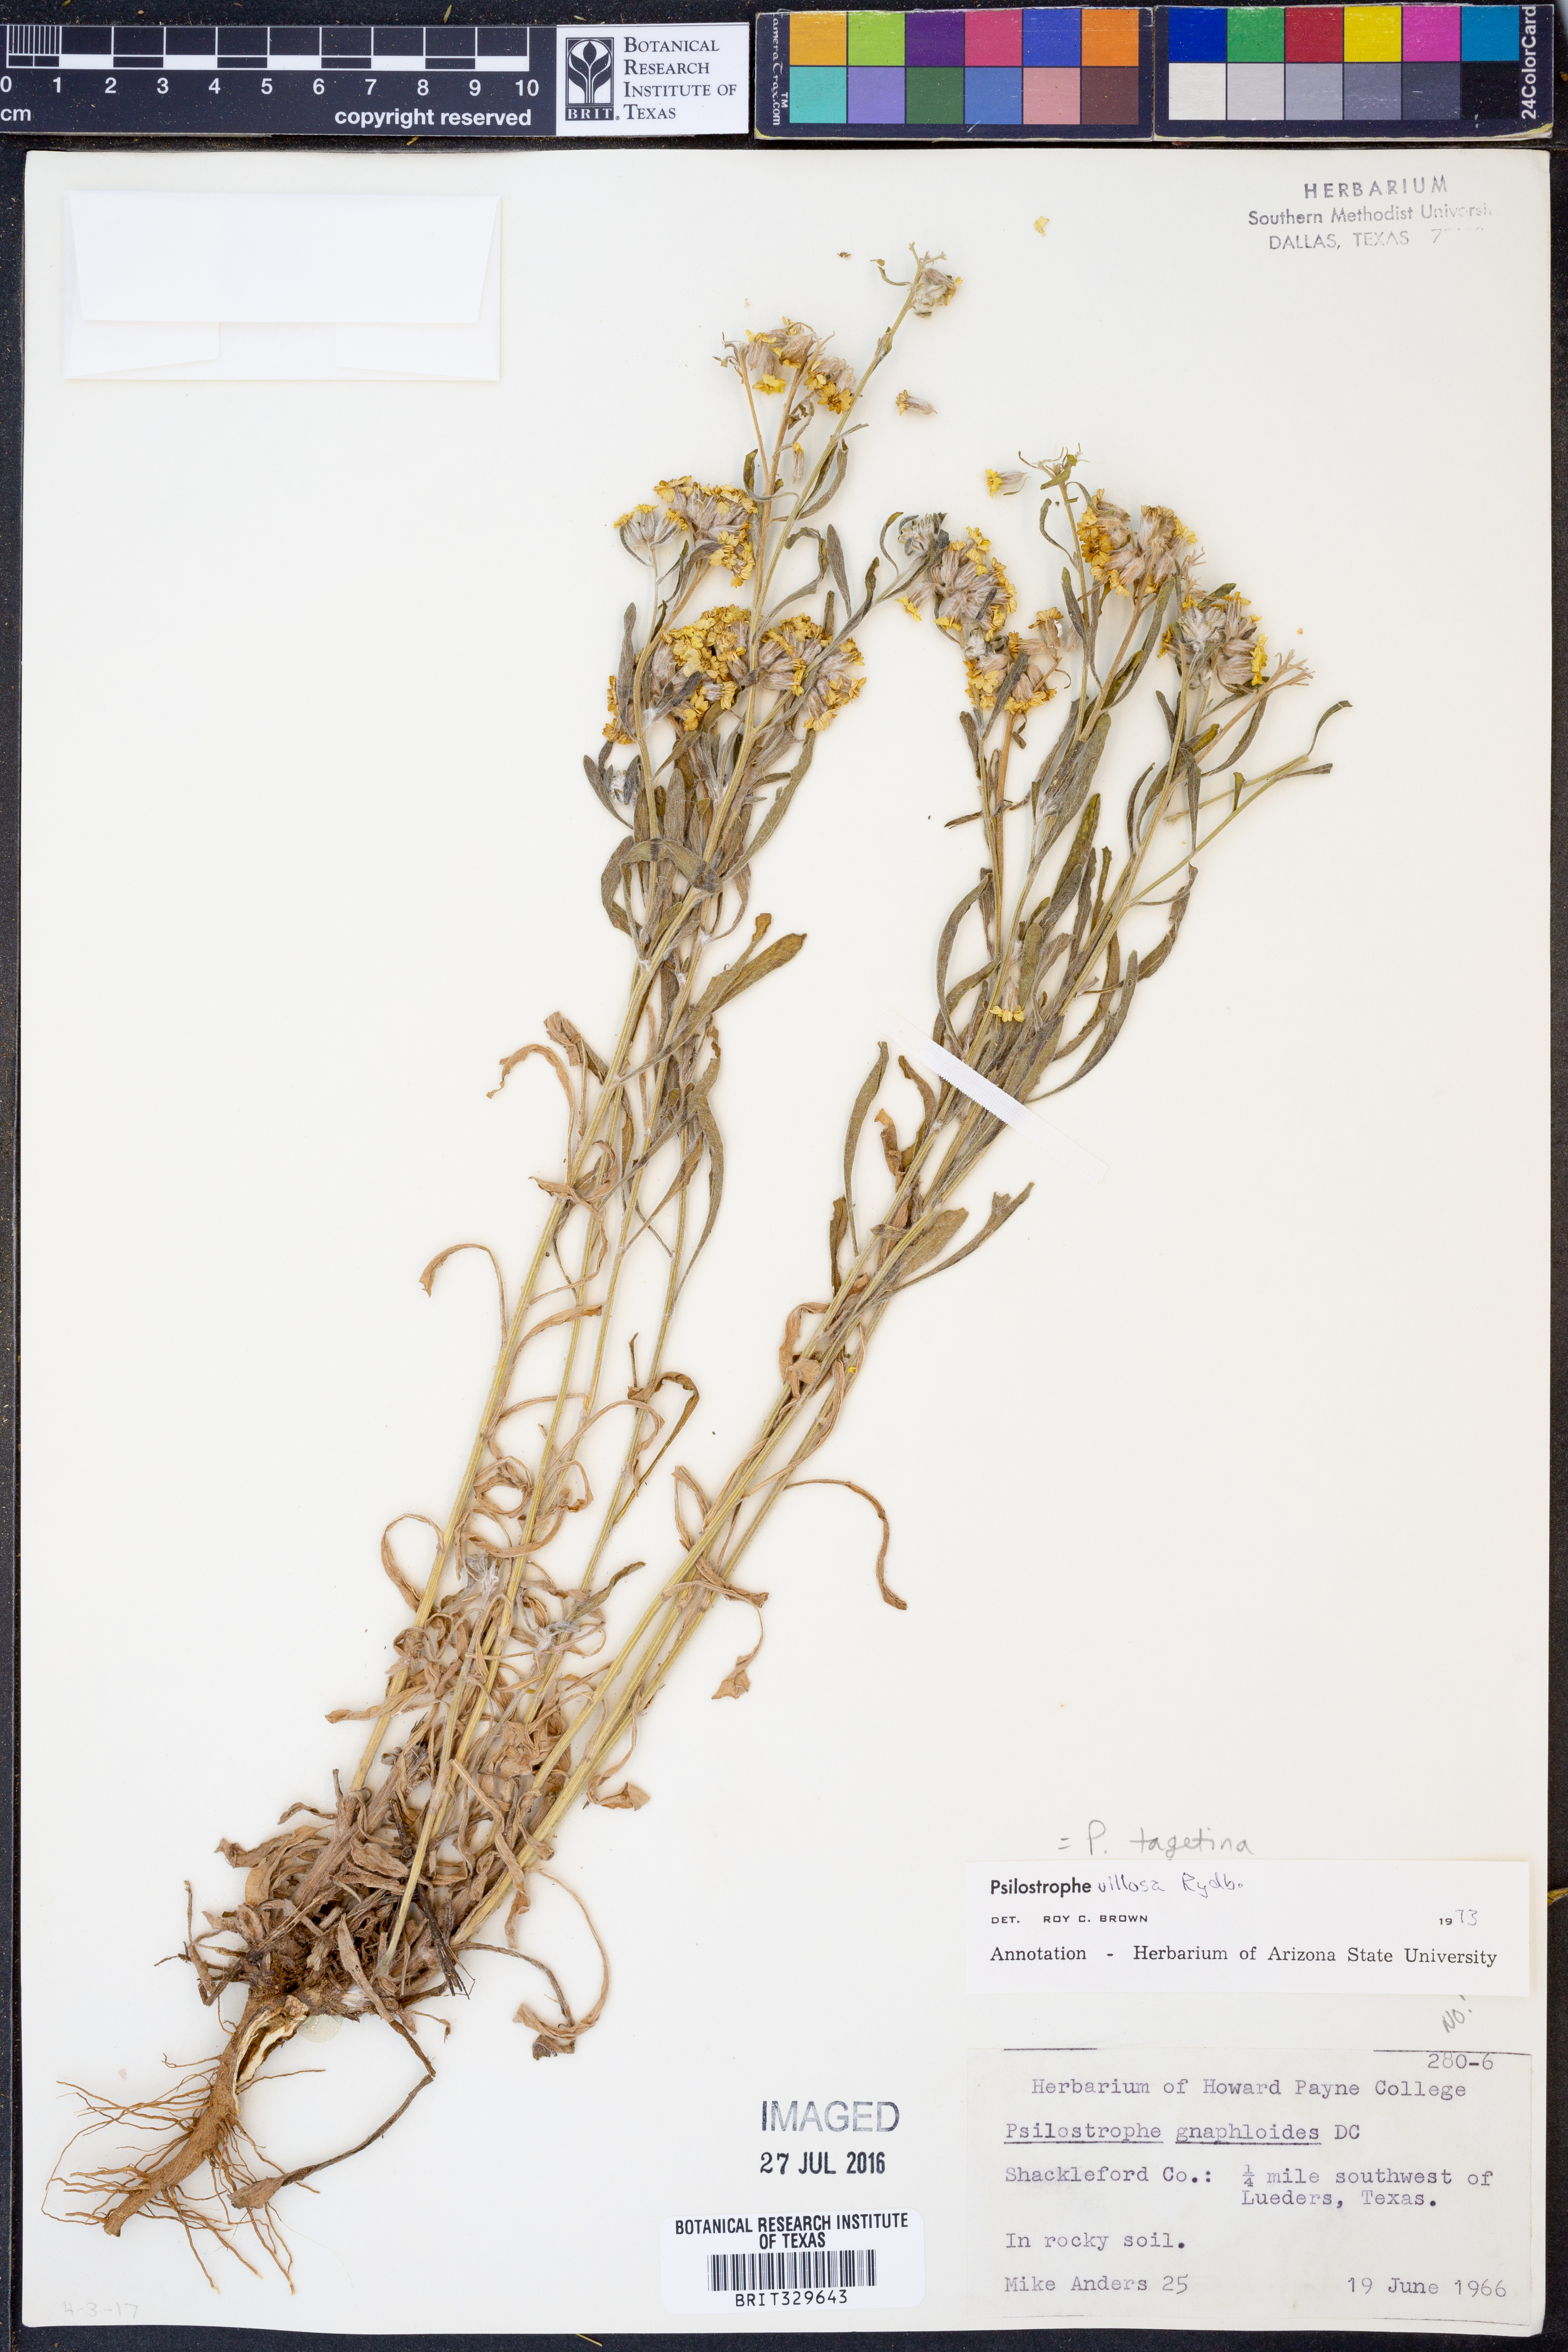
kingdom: Plantae
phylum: Tracheophyta
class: Magnoliopsida
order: Asterales
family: Asteraceae
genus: Psilostrophe
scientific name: Psilostrophe tagetina
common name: Marigold paper-flower
